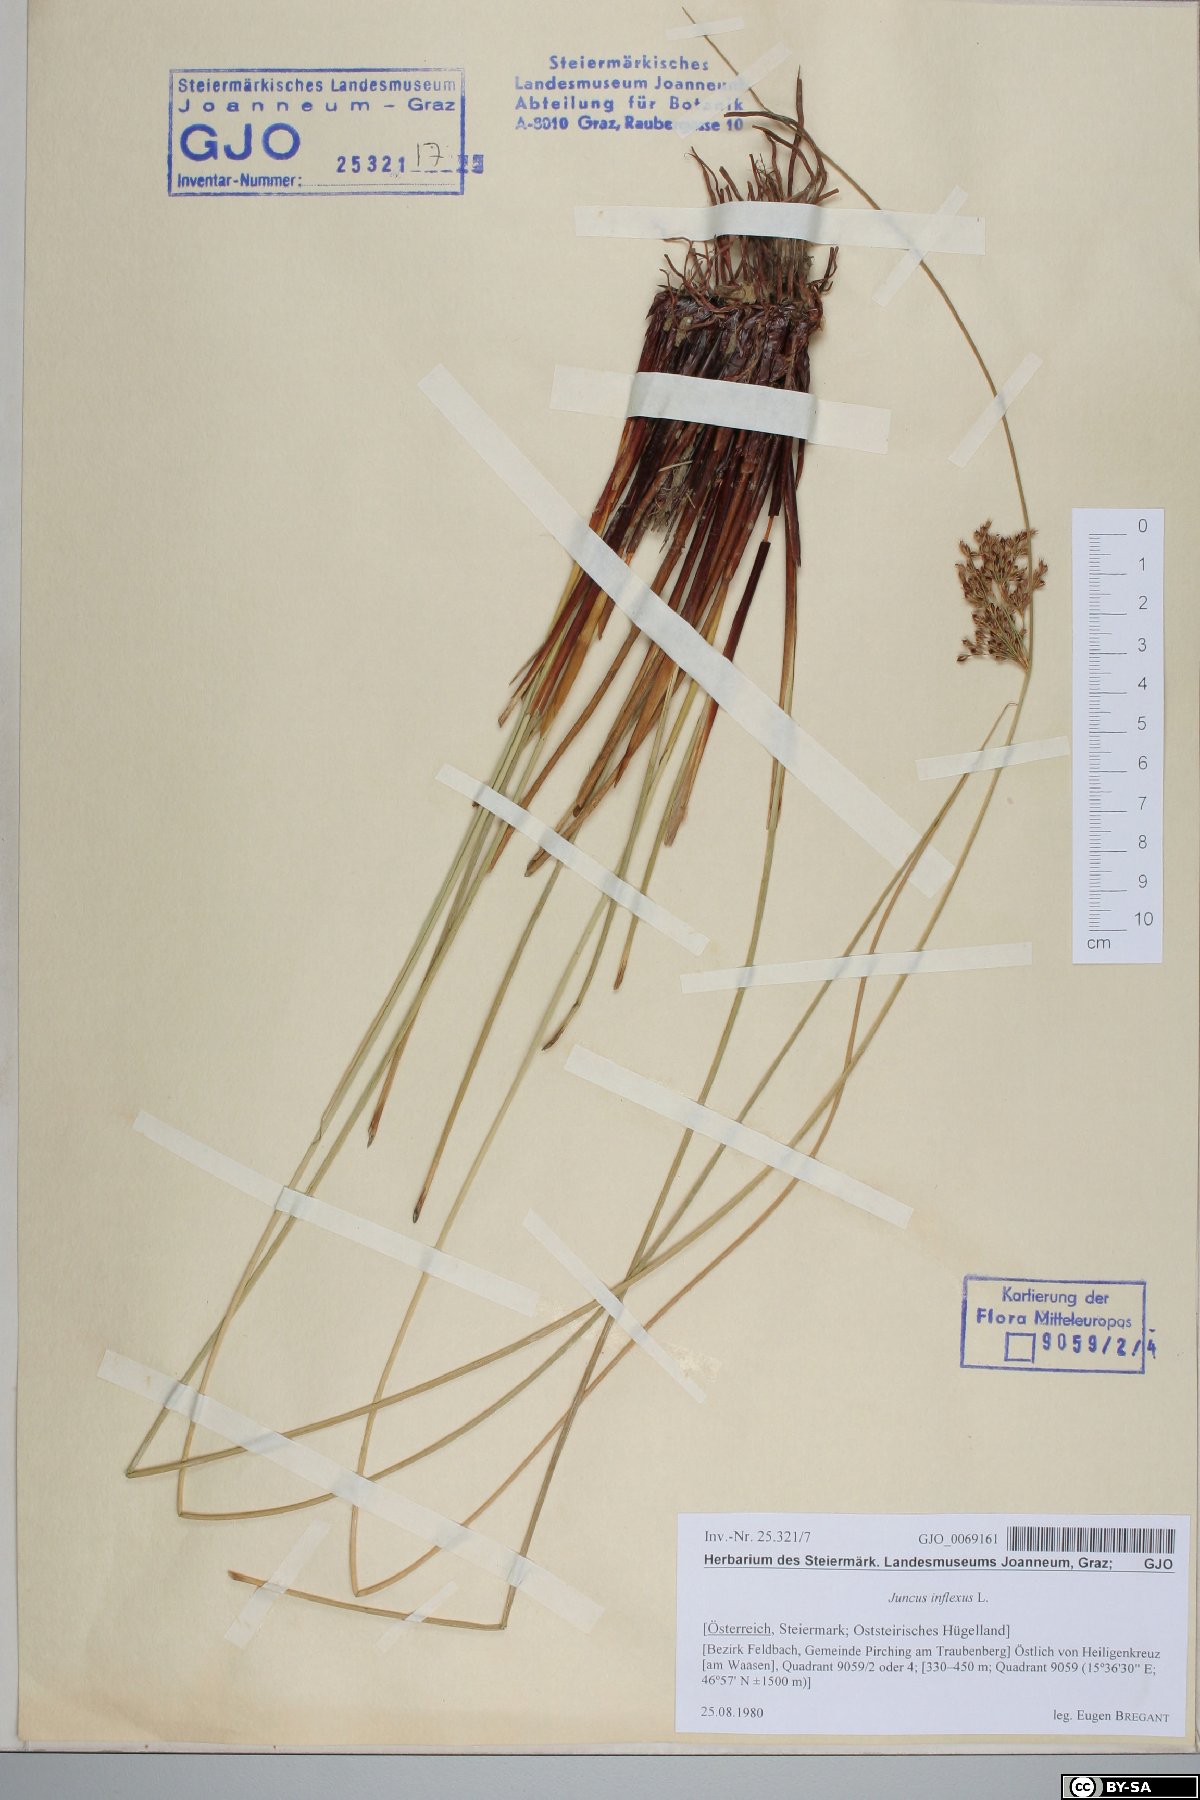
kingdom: Plantae
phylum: Tracheophyta
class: Liliopsida
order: Poales
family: Juncaceae
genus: Juncus
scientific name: Juncus inflexus
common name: Hard rush
